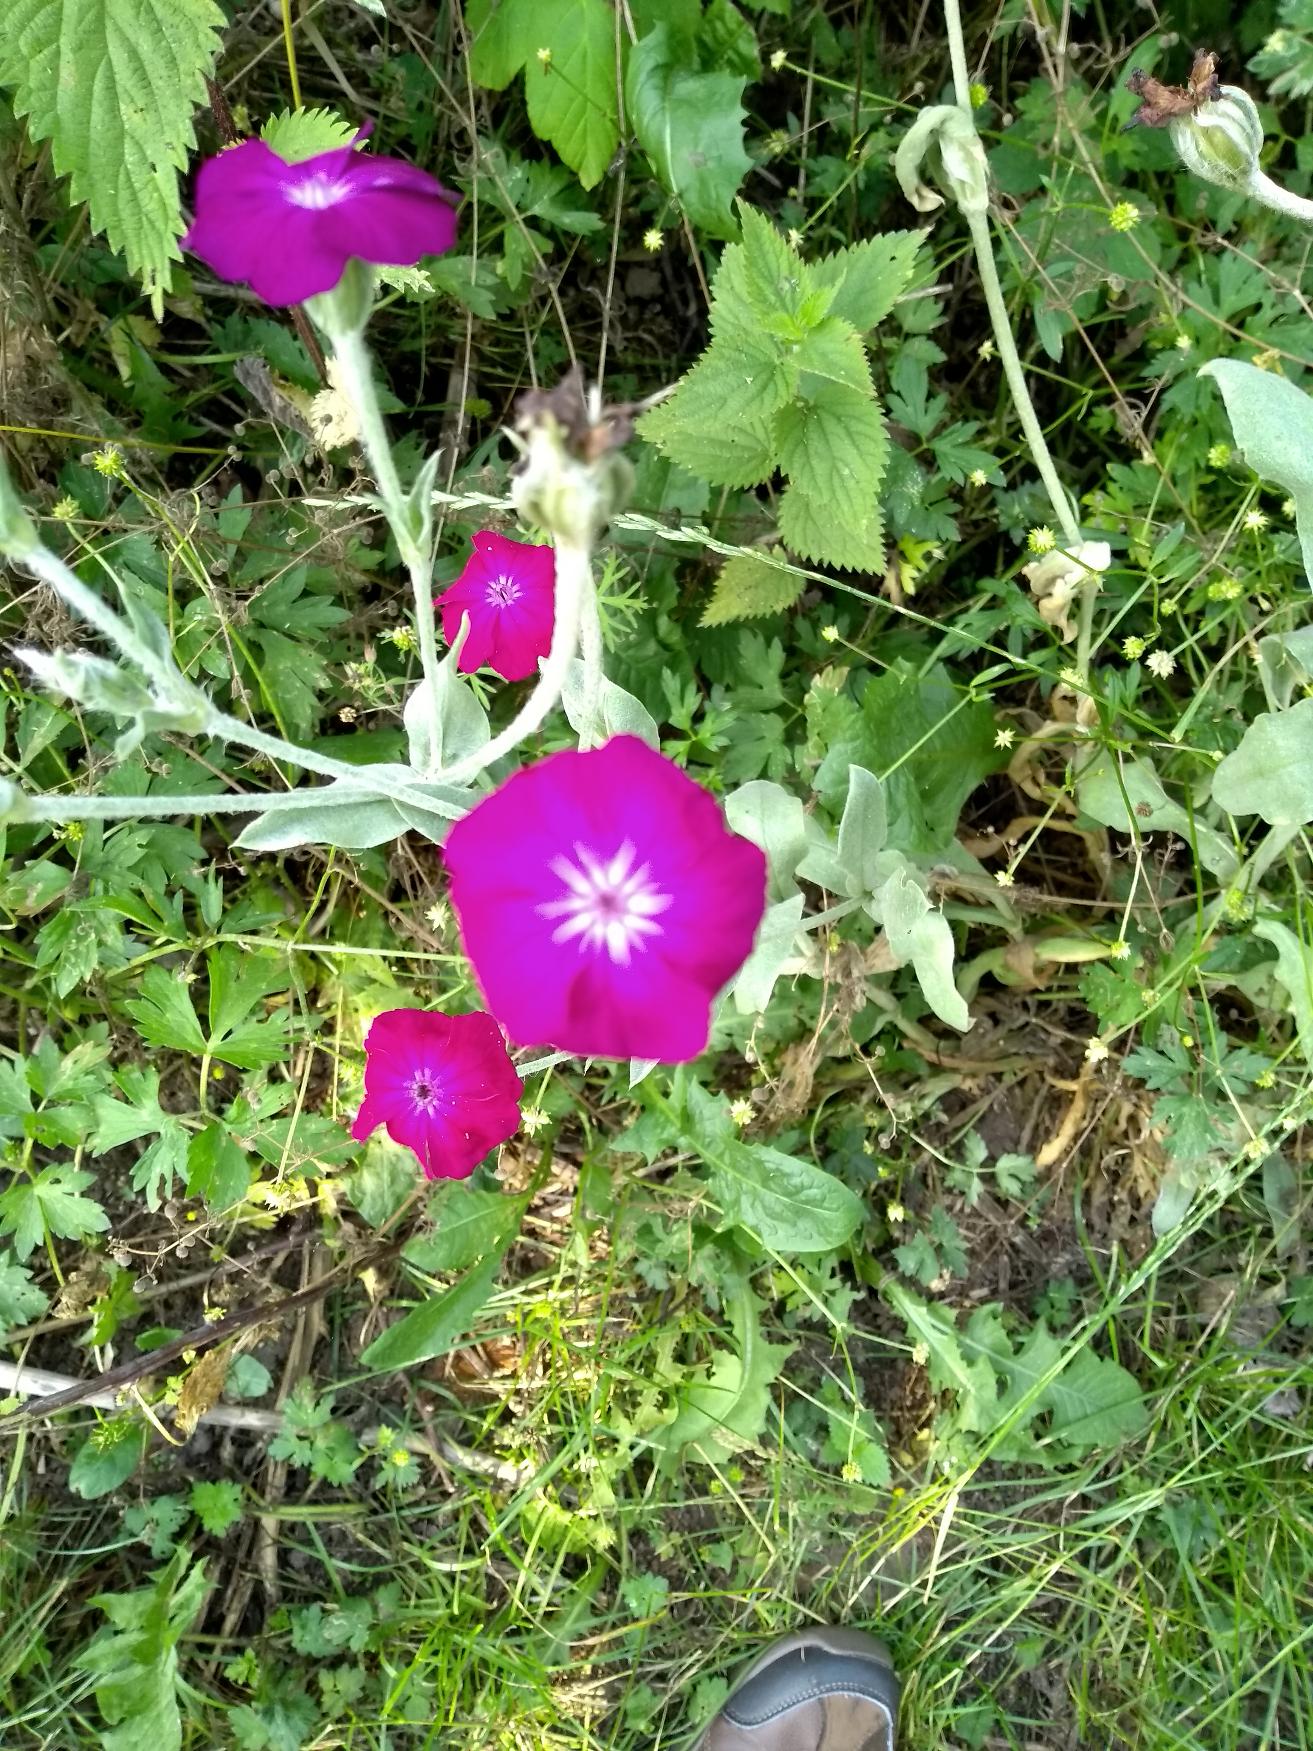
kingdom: Plantae
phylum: Tracheophyta
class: Magnoliopsida
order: Caryophyllales
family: Caryophyllaceae
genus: Silene
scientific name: Silene coronaria
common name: Fiksernellike
